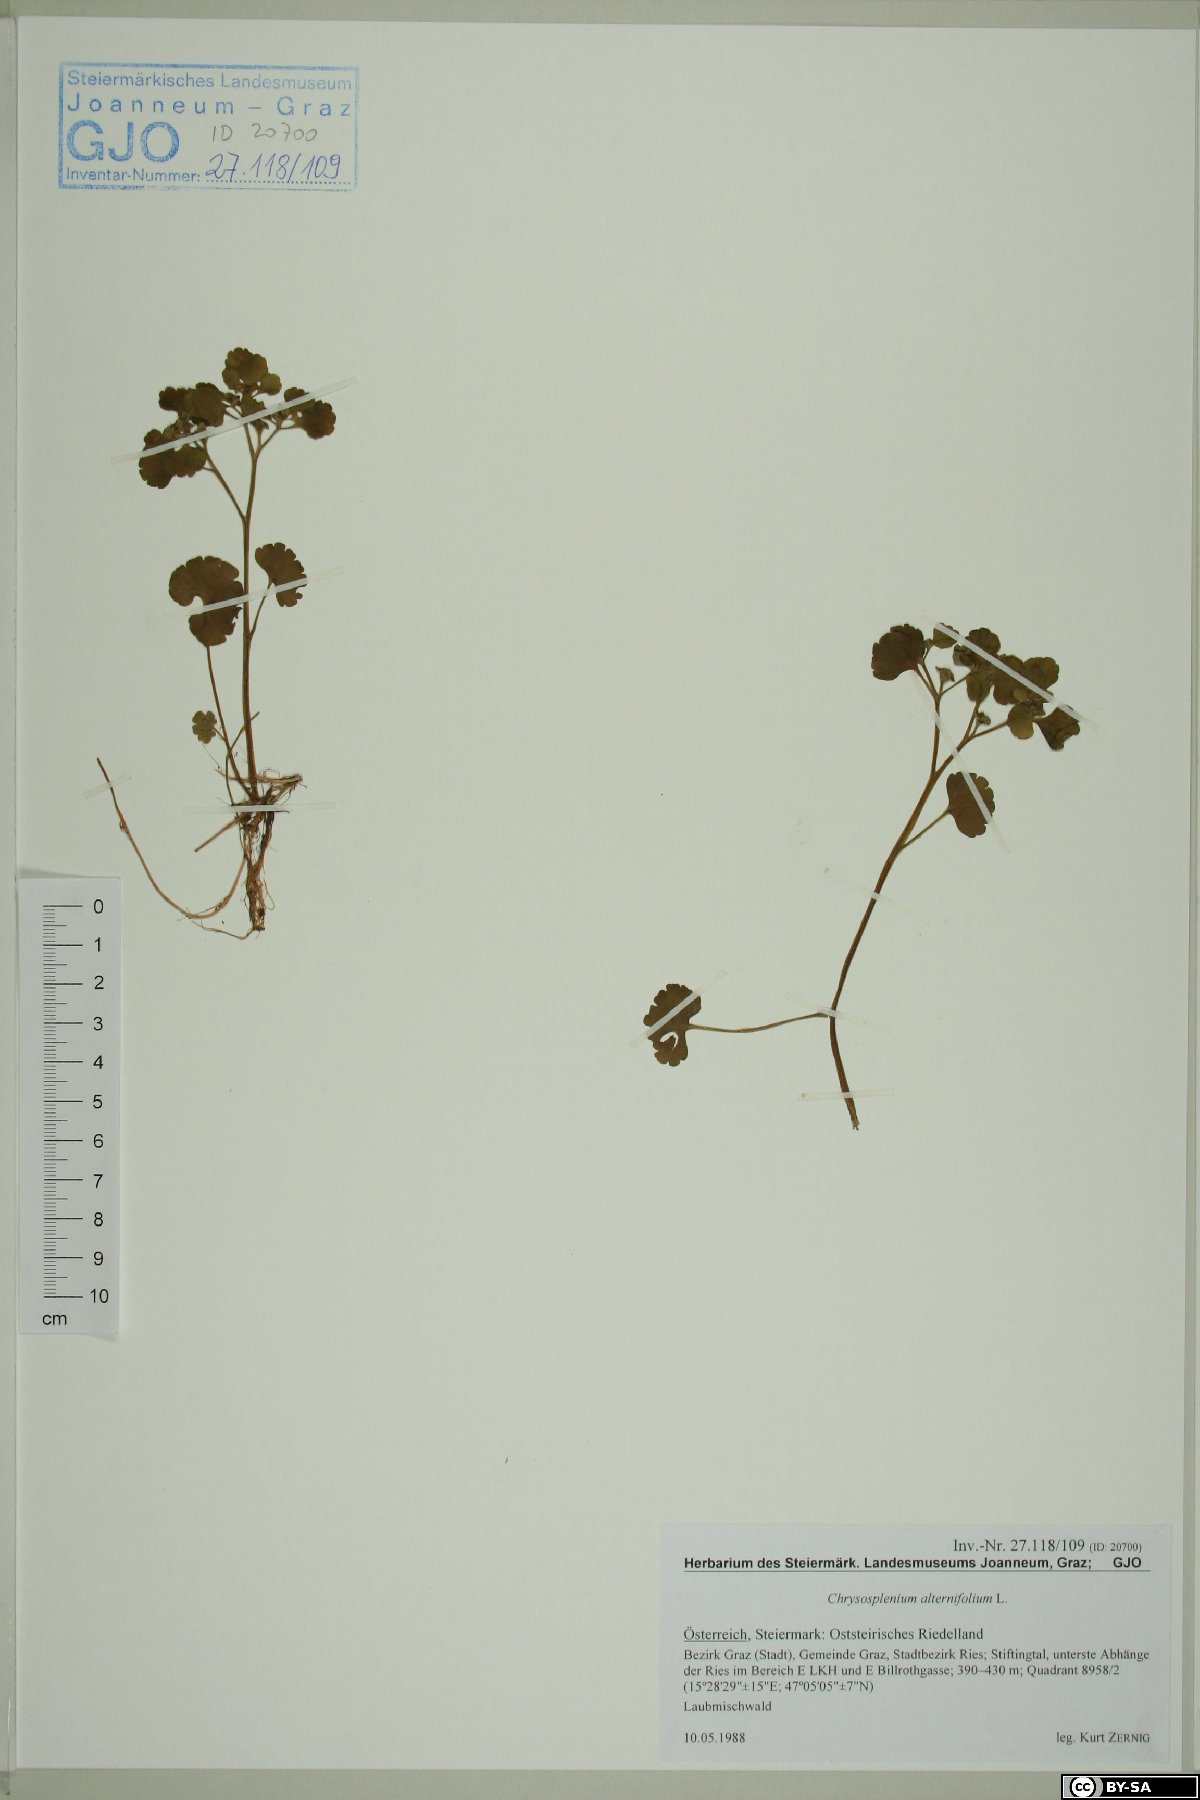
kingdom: Plantae
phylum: Tracheophyta
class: Magnoliopsida
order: Saxifragales
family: Saxifragaceae
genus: Chrysosplenium
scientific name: Chrysosplenium alternifolium
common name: Alternate-leaved golden-saxifrage
